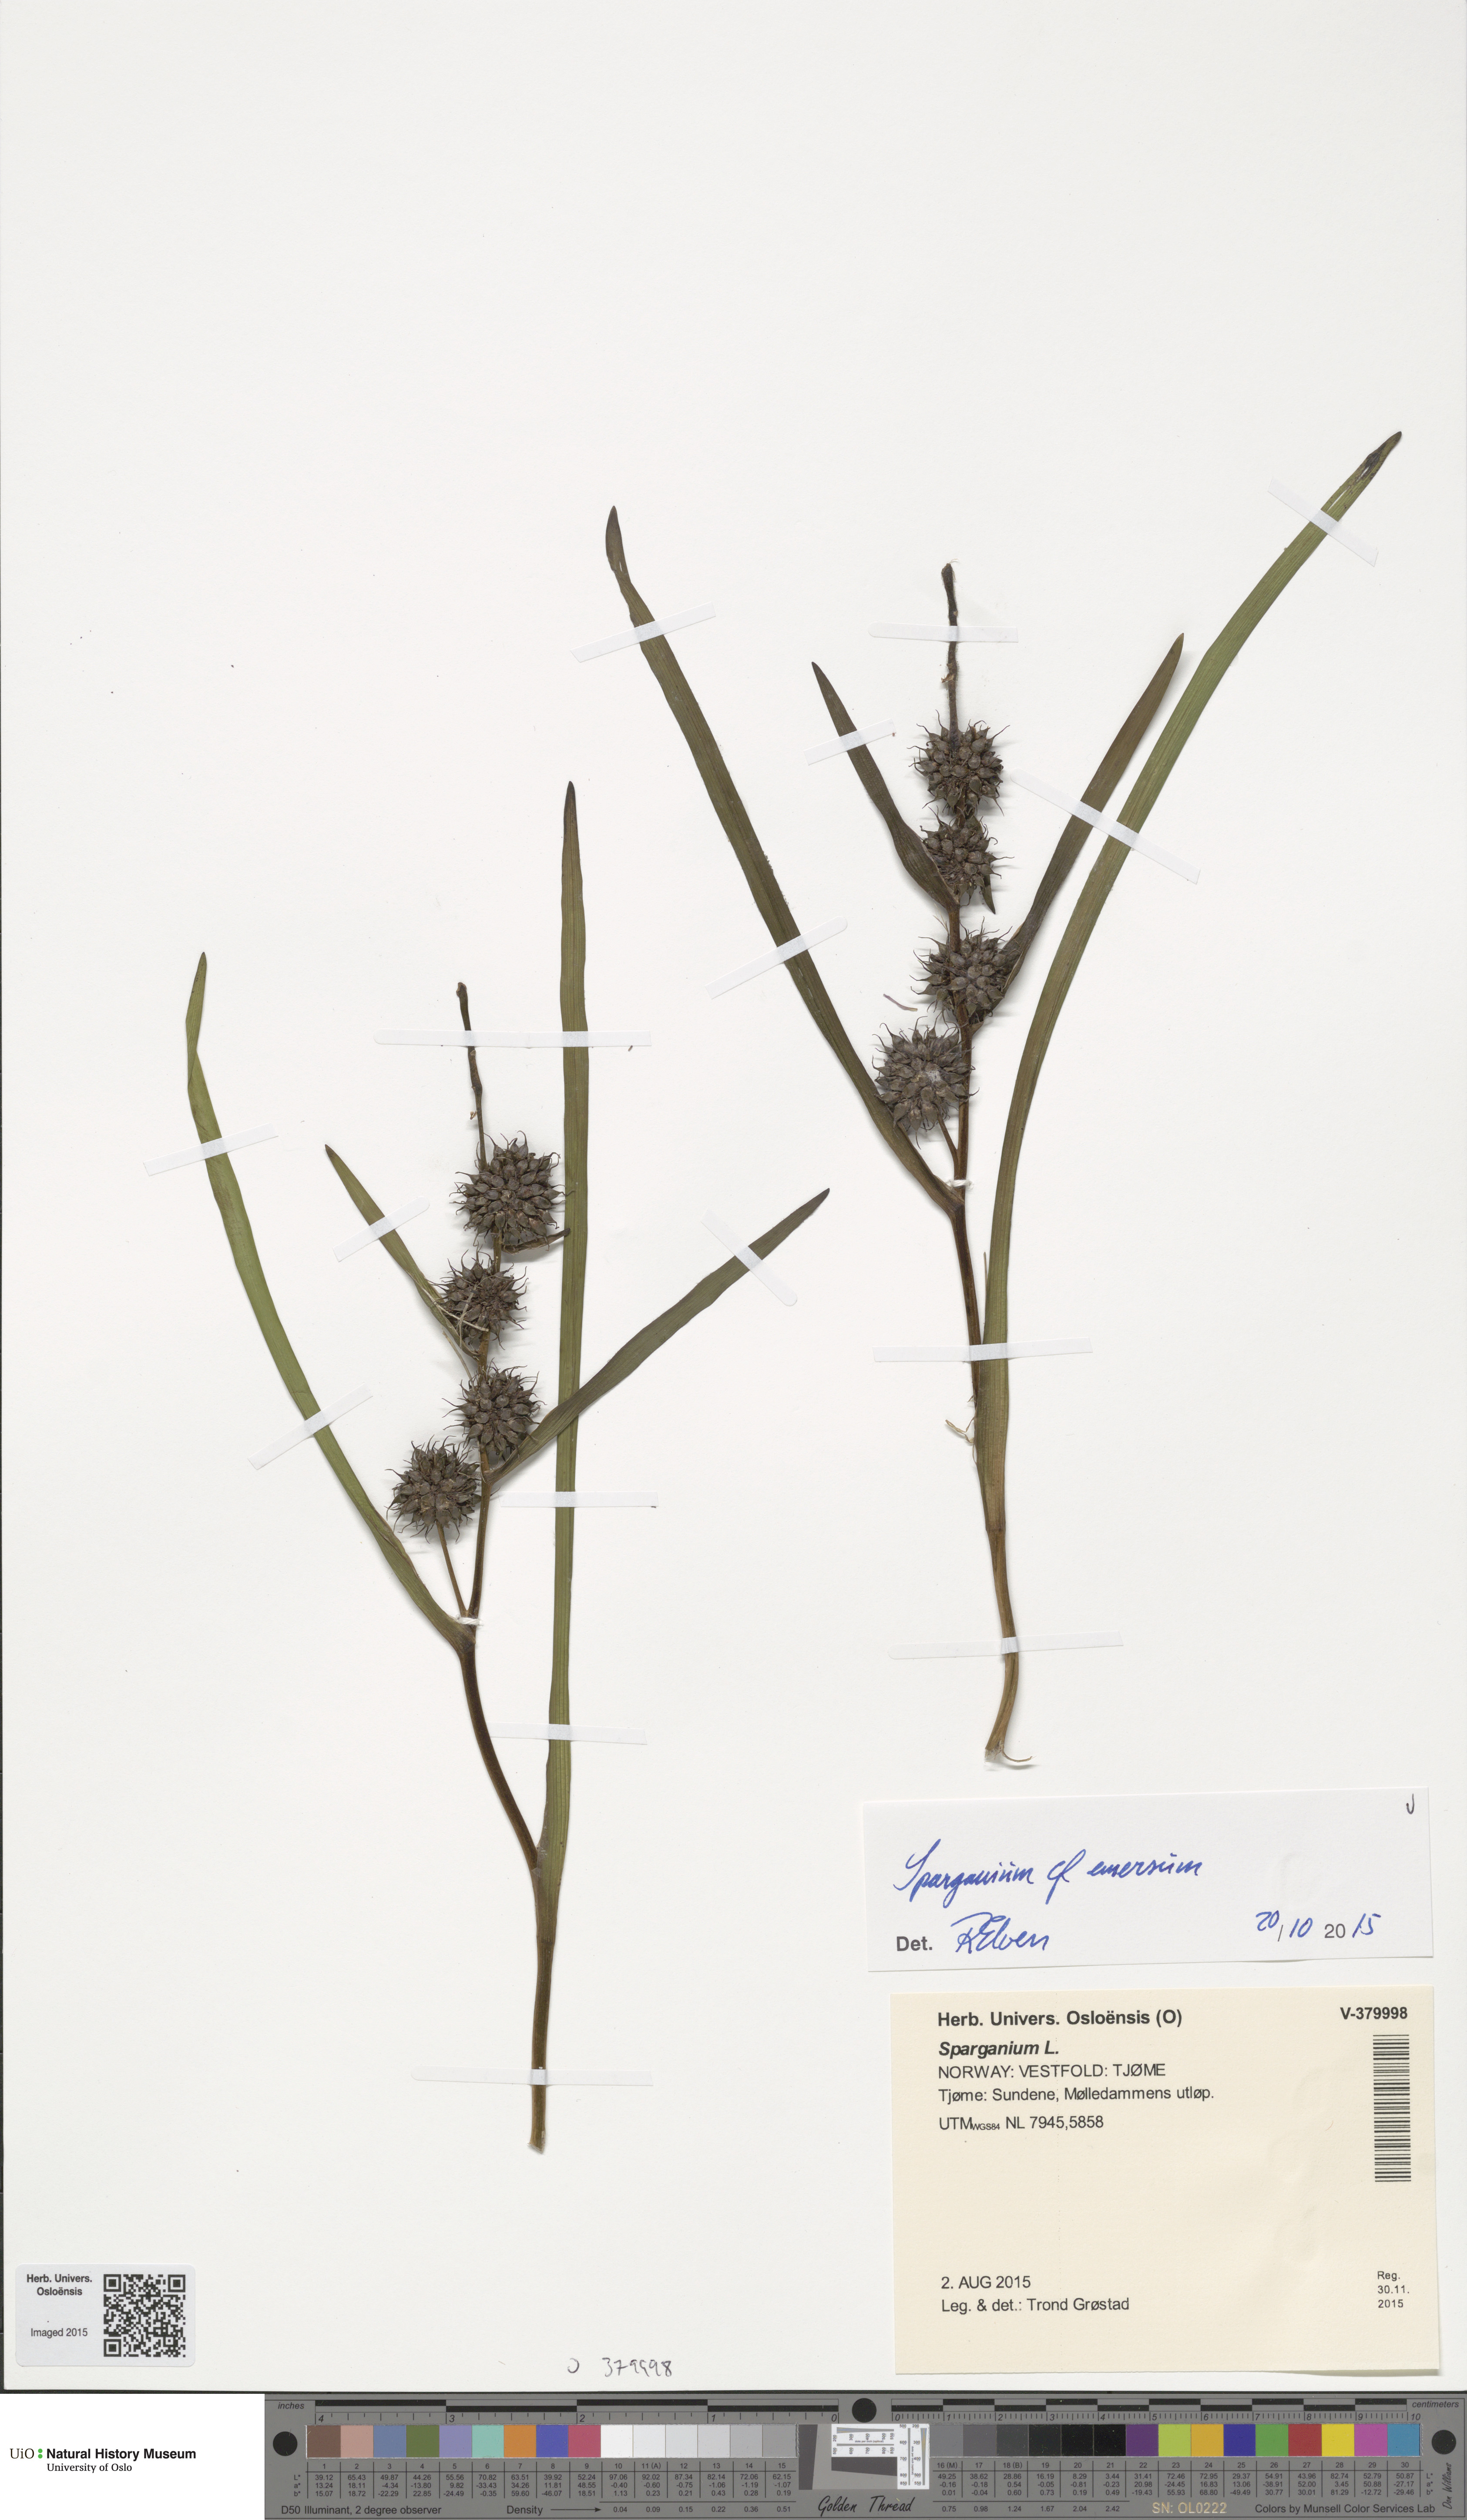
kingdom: Plantae
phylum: Tracheophyta
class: Liliopsida
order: Poales
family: Typhaceae
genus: Sparganium
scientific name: Sparganium emersum
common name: Unbranched bur-reed
